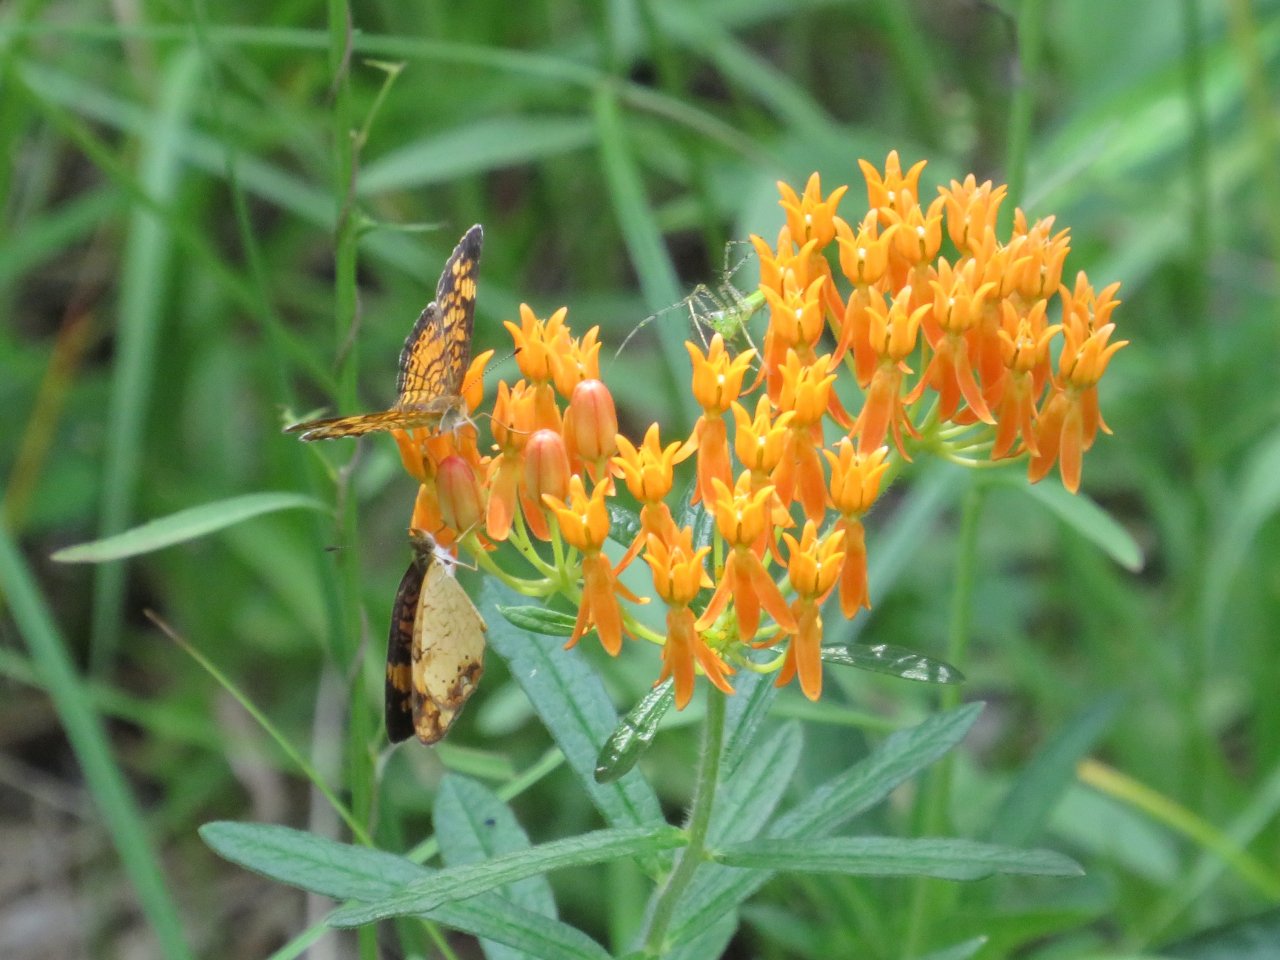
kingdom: Animalia
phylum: Arthropoda
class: Insecta
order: Lepidoptera
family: Nymphalidae
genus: Phyciodes
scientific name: Phyciodes tharos
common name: Pearl Crescent
